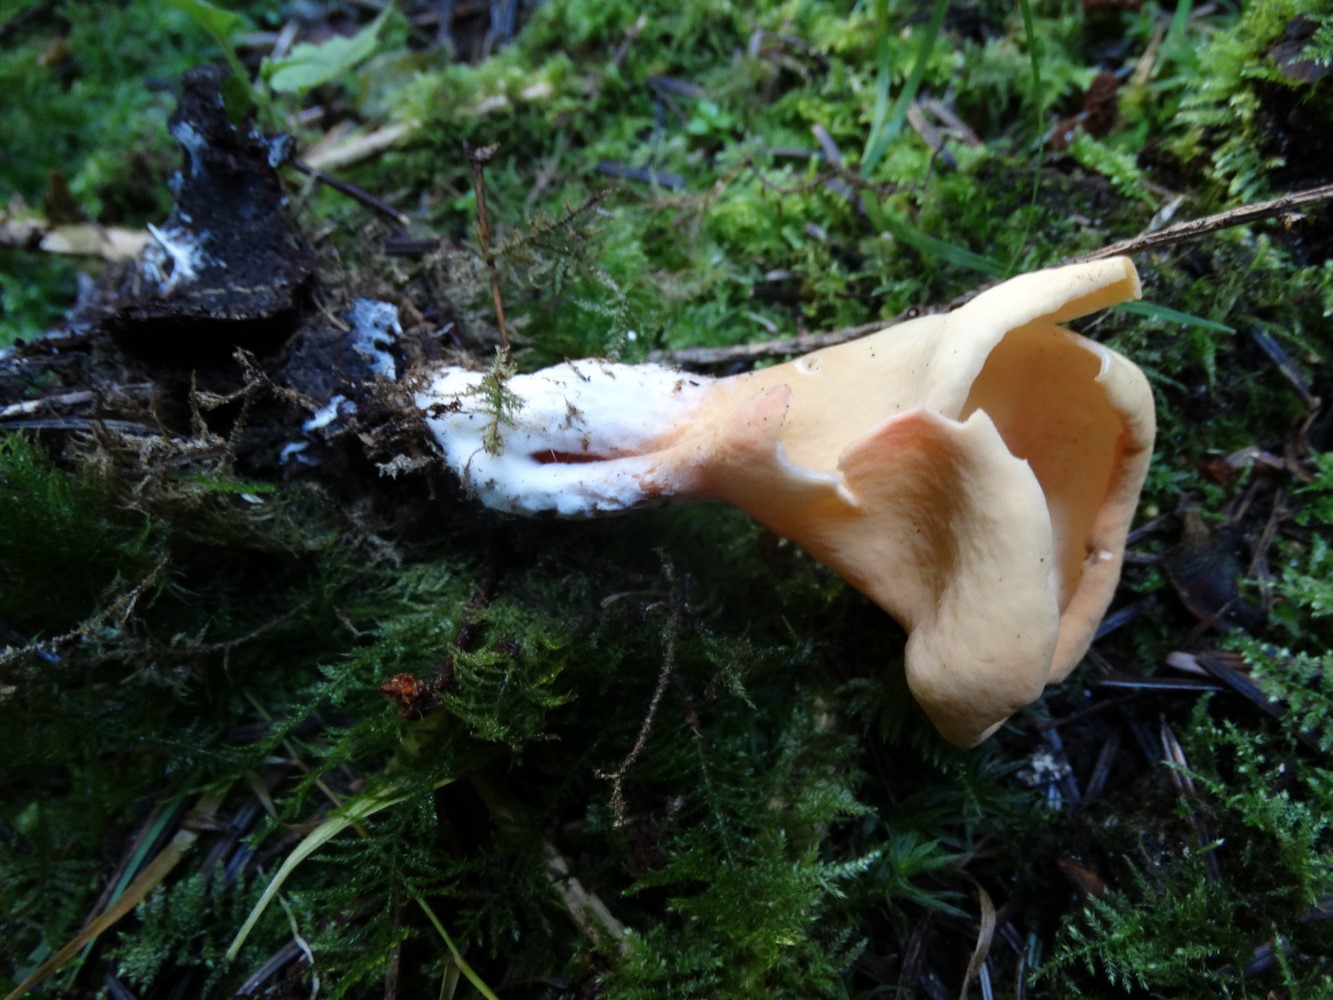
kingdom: Fungi
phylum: Ascomycota
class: Pezizomycetes
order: Pezizales
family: Otideaceae
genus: Otidea
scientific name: Otidea onotica
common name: æsel-ørebæger
